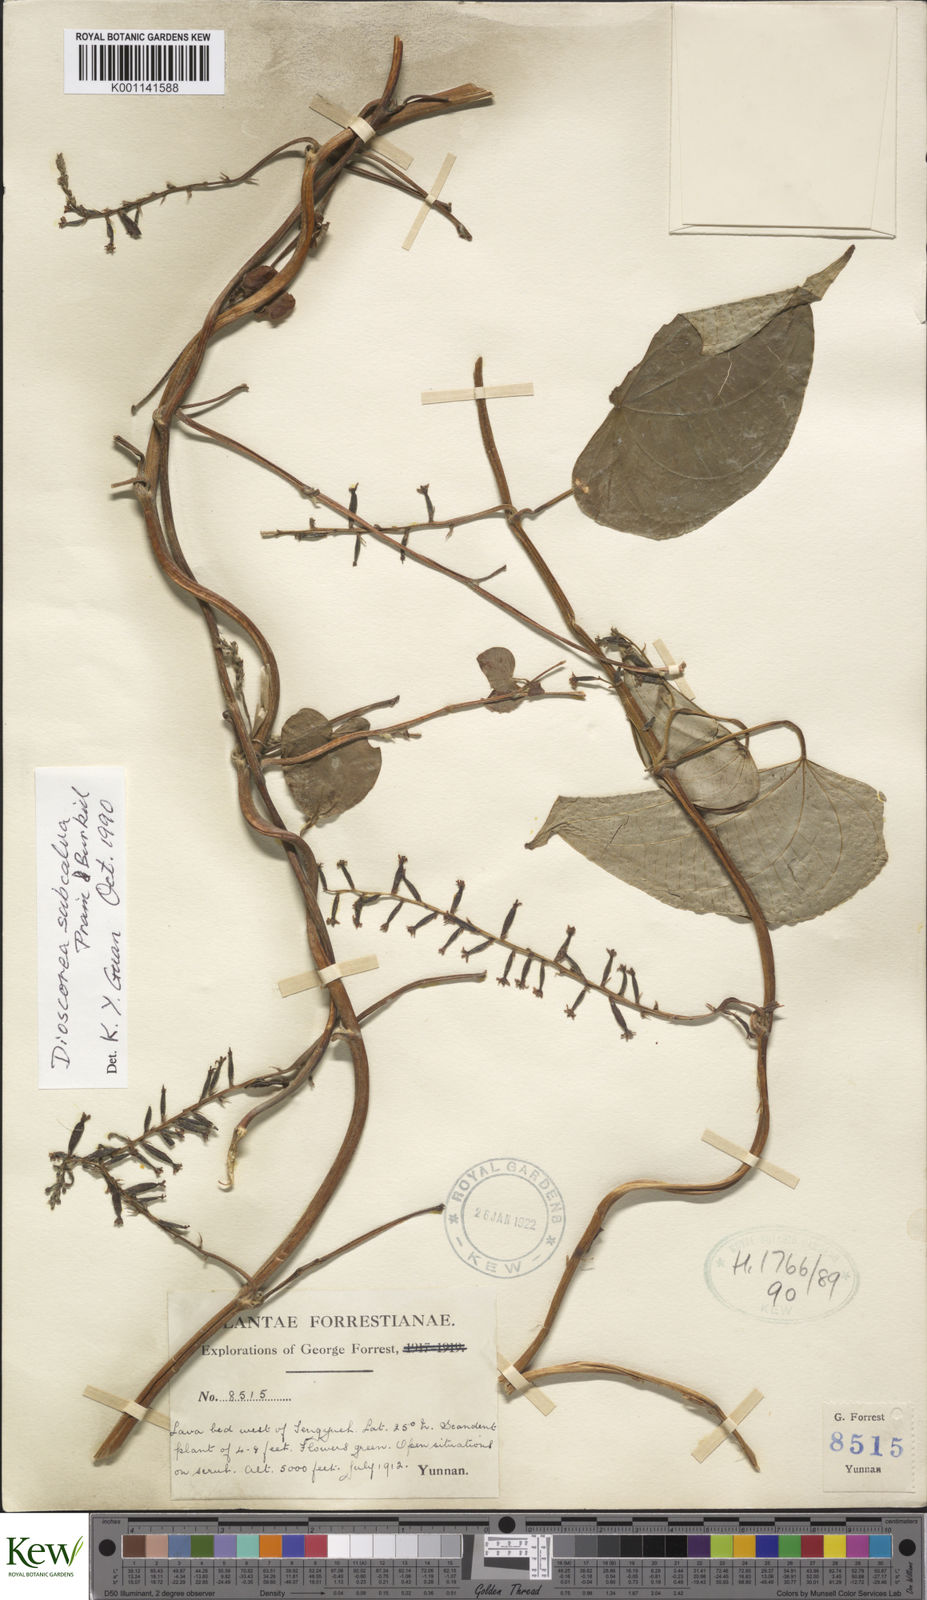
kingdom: Plantae
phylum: Tracheophyta
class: Liliopsida
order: Dioscoreales
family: Dioscoreaceae
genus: Dioscorea
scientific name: Dioscorea subcalva
